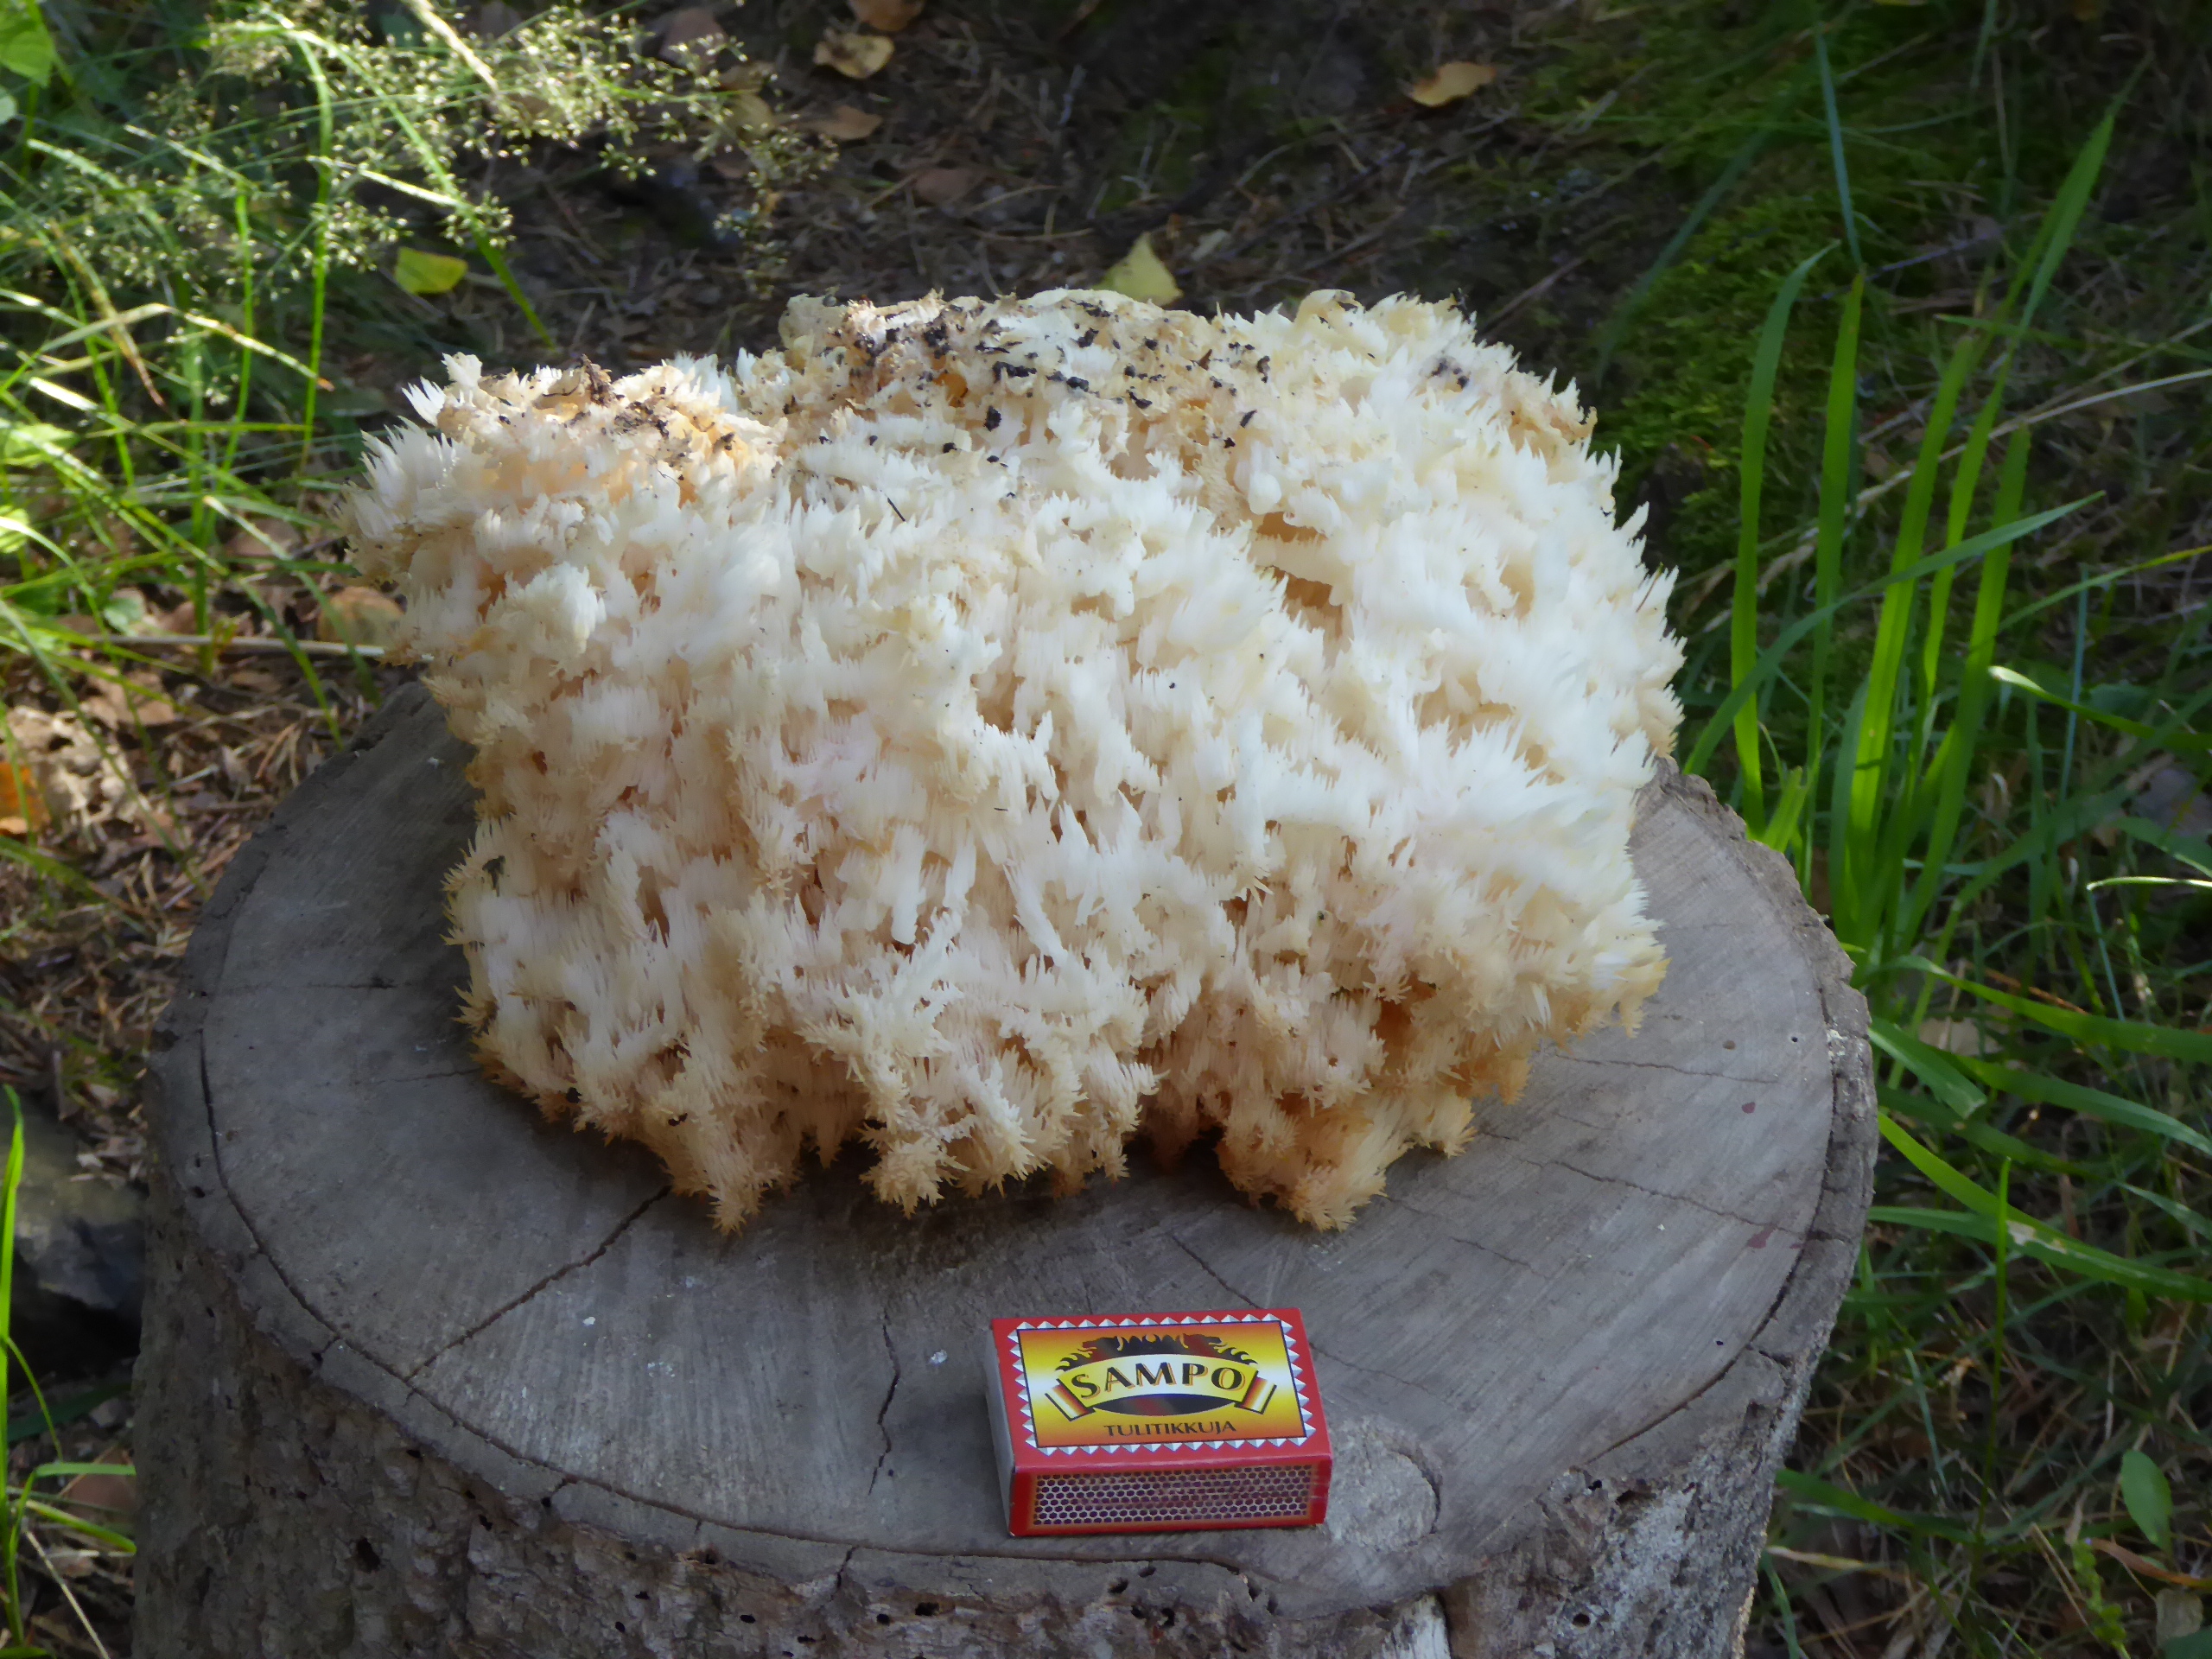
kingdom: Fungi
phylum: Basidiomycota
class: Agaricomycetes
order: Russulales
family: Hericiaceae
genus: Hericium
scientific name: Hericium coralloides
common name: Coral tooth
